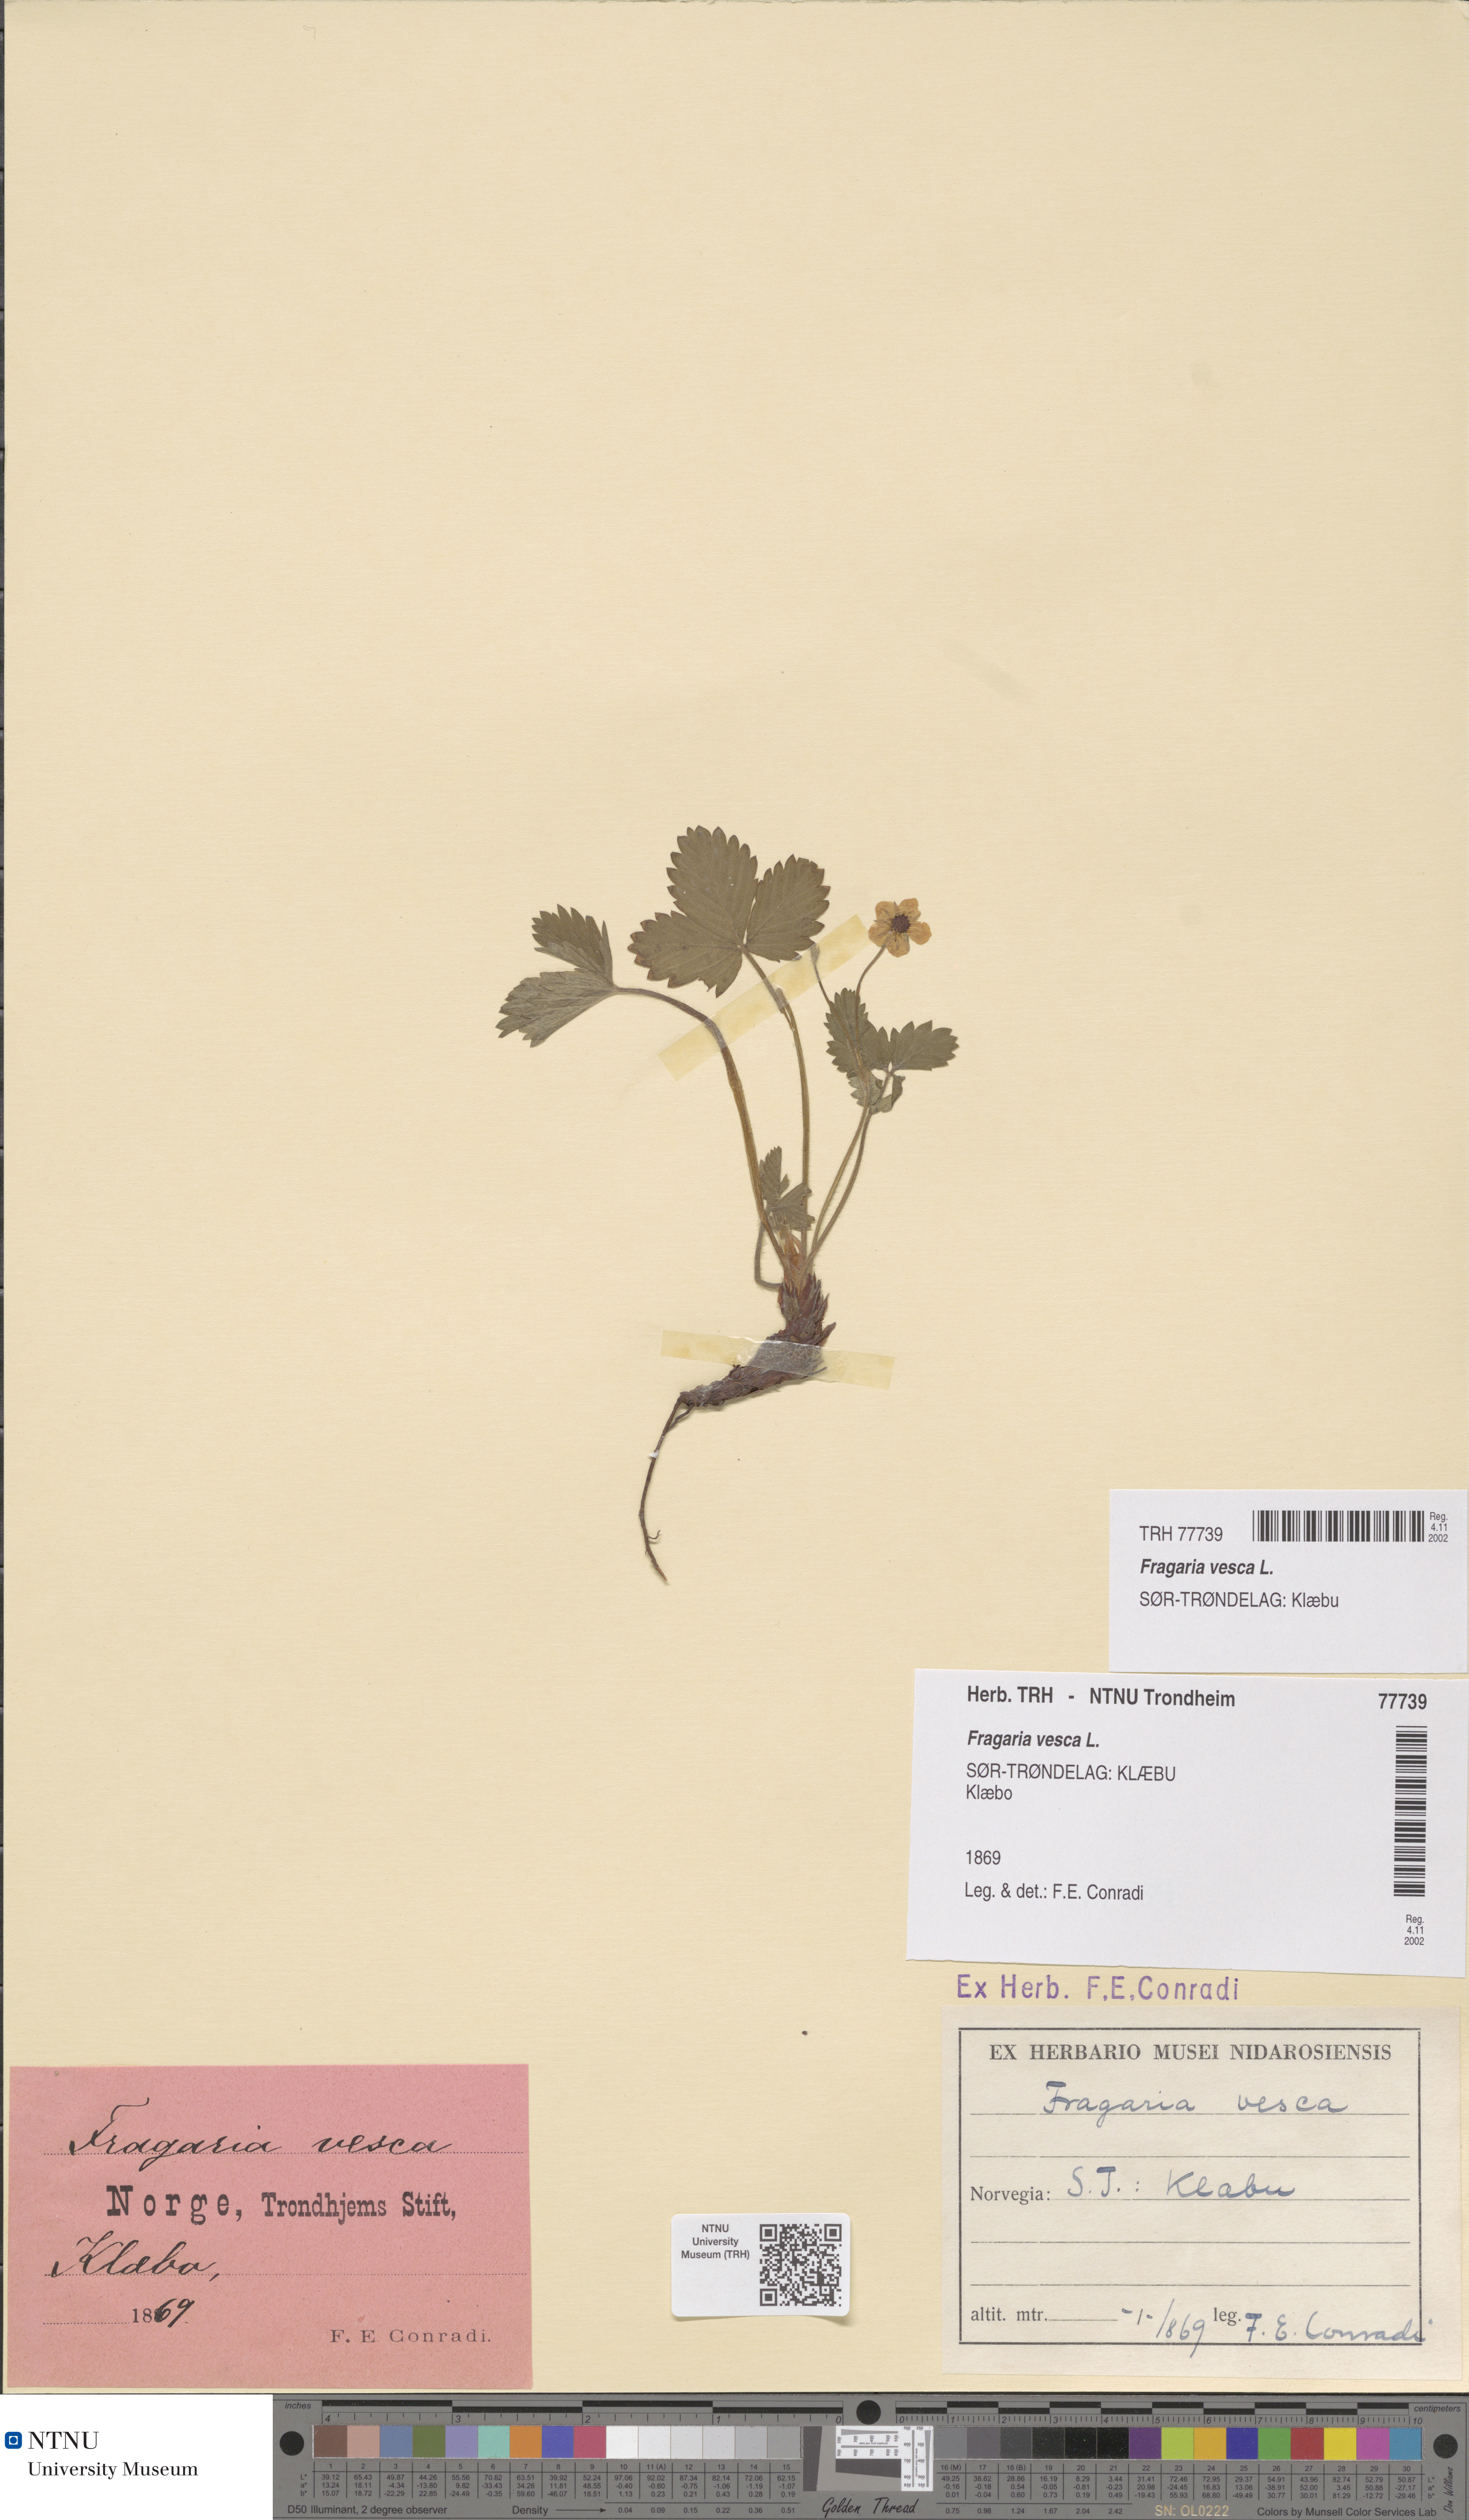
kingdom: Plantae
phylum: Tracheophyta
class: Magnoliopsida
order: Rosales
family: Rosaceae
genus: Fragaria
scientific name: Fragaria vesca
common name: Wild strawberry
